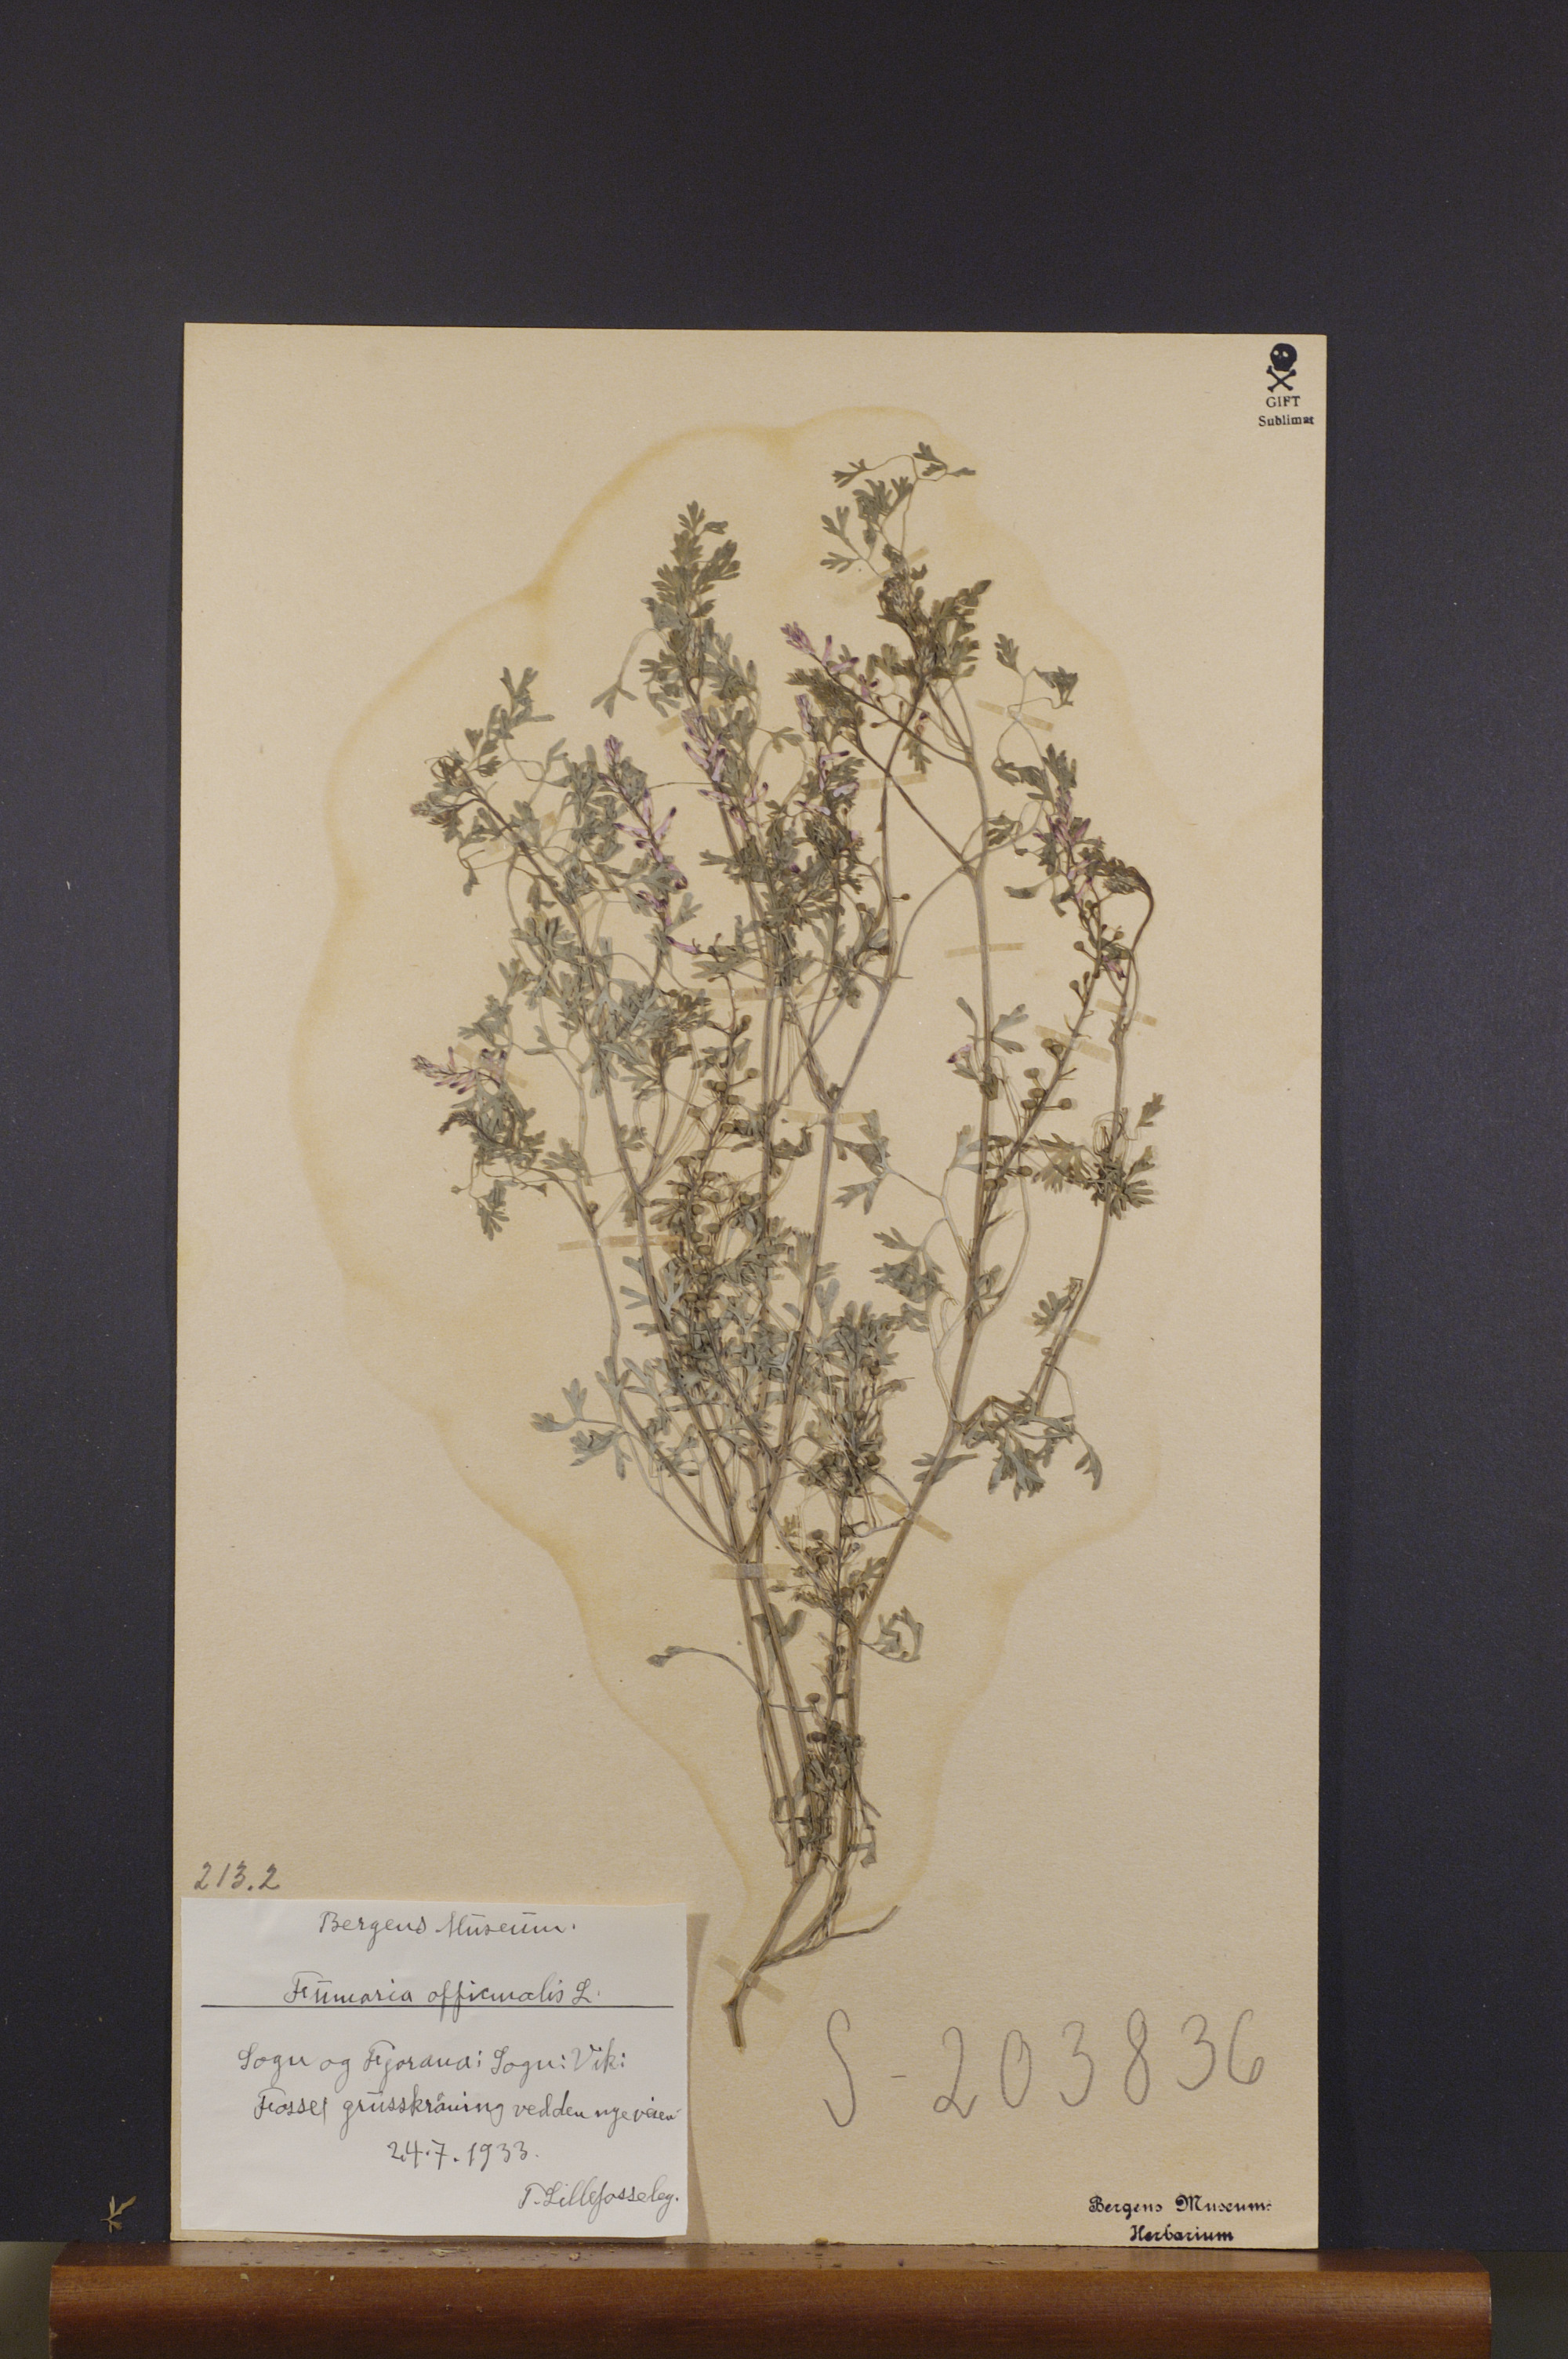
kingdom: Plantae
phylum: Tracheophyta
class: Magnoliopsida
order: Ranunculales
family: Papaveraceae
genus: Fumaria
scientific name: Fumaria officinalis
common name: Common fumitory
